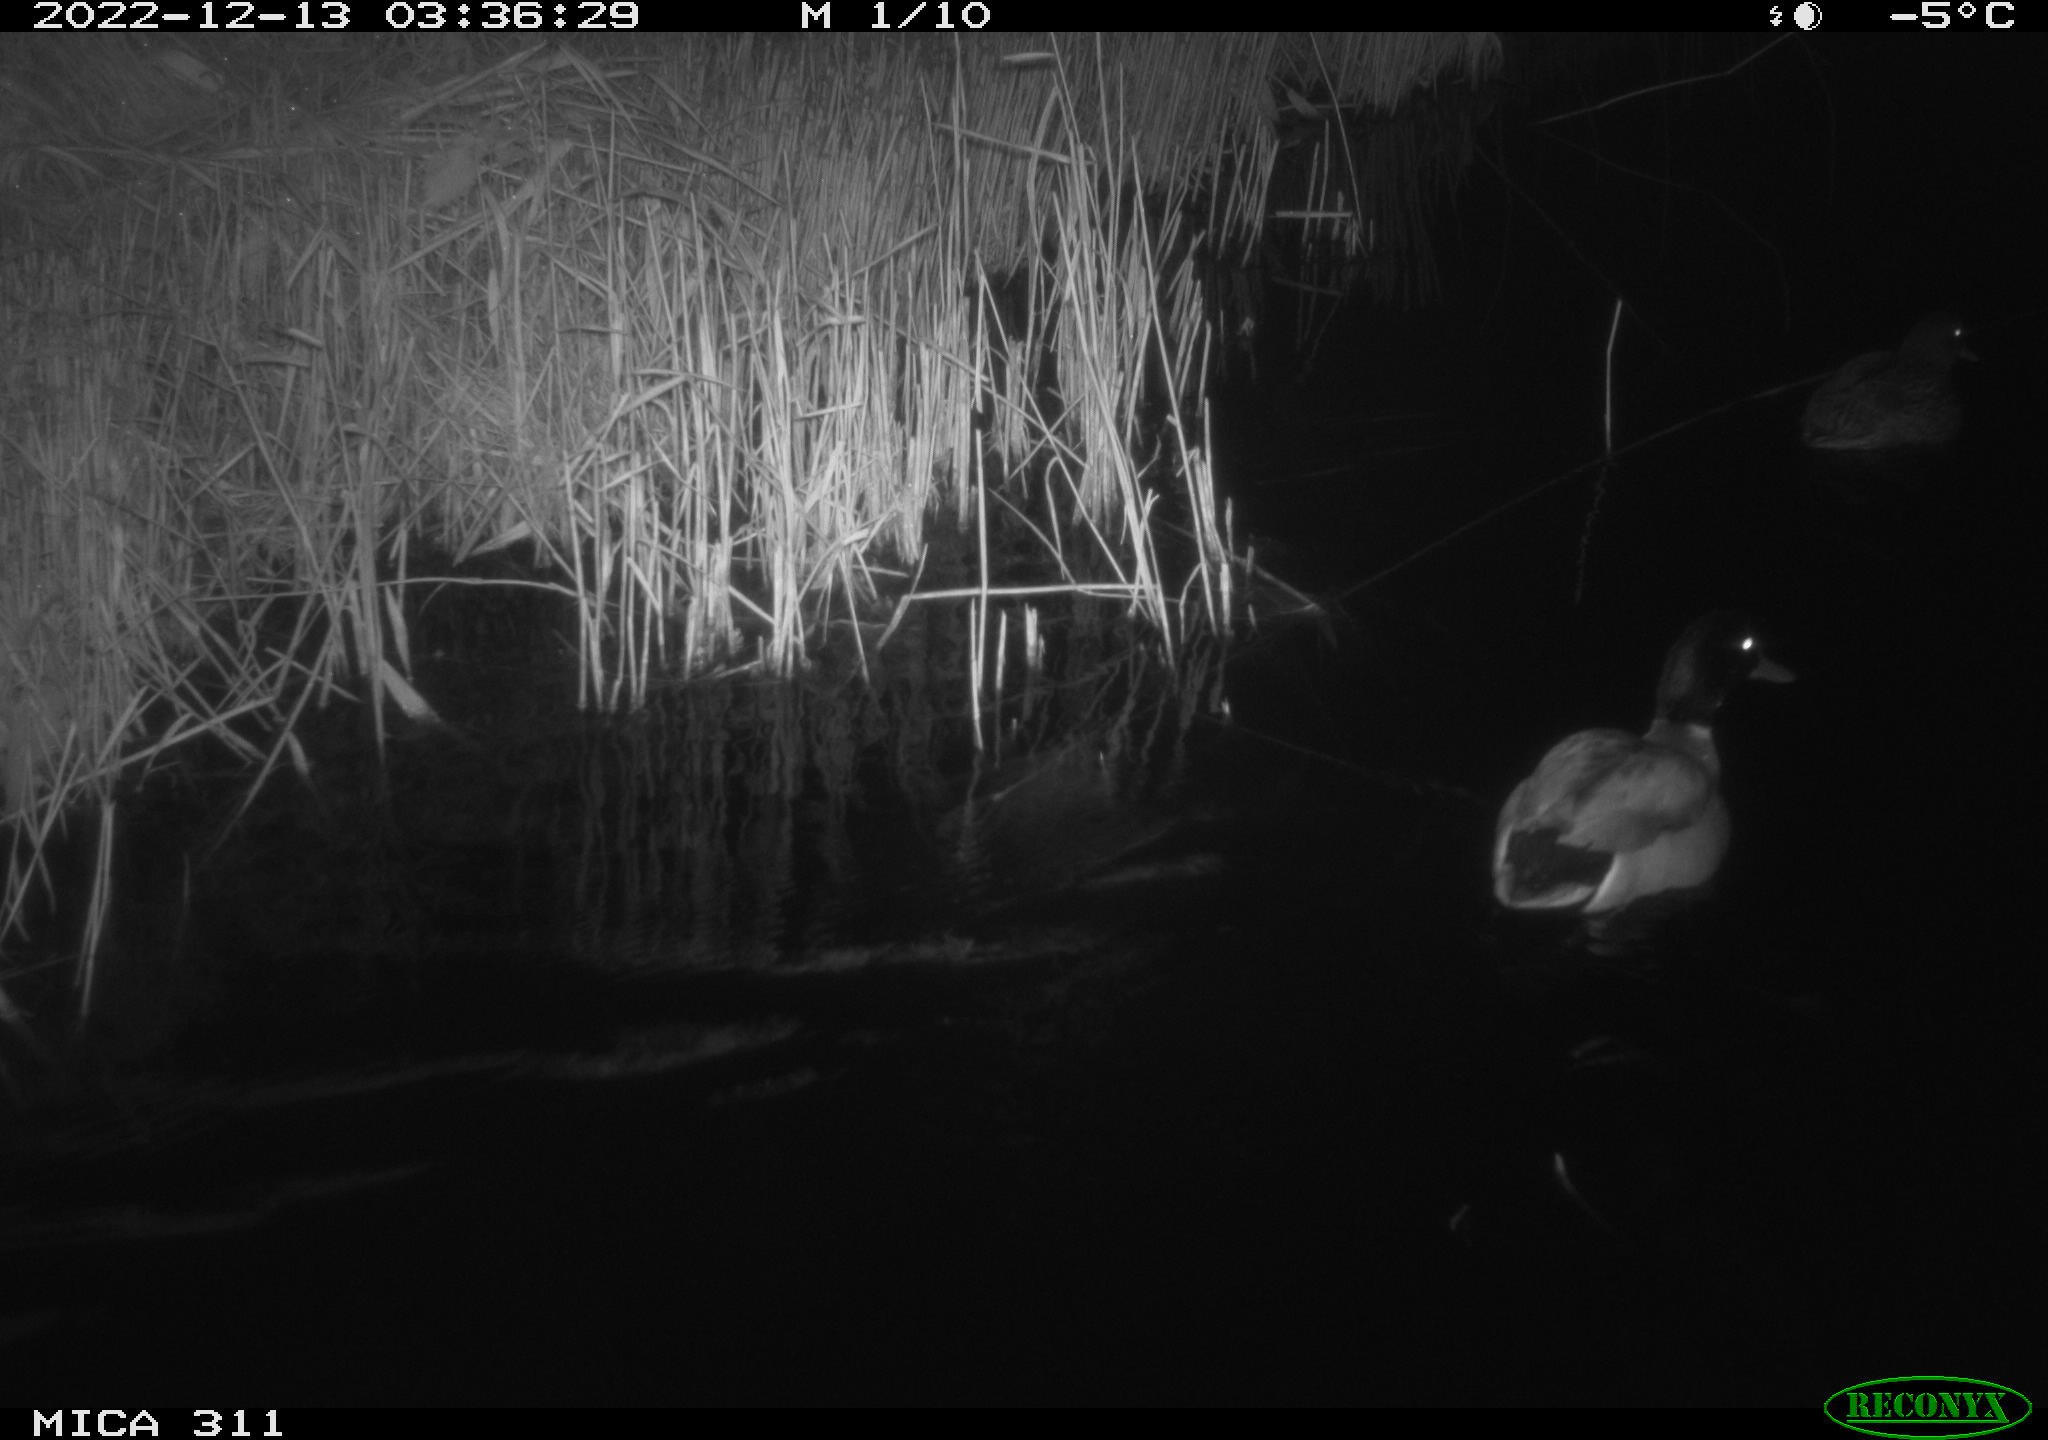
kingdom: Animalia
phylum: Chordata
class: Aves
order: Anseriformes
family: Anatidae
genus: Anas
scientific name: Anas
